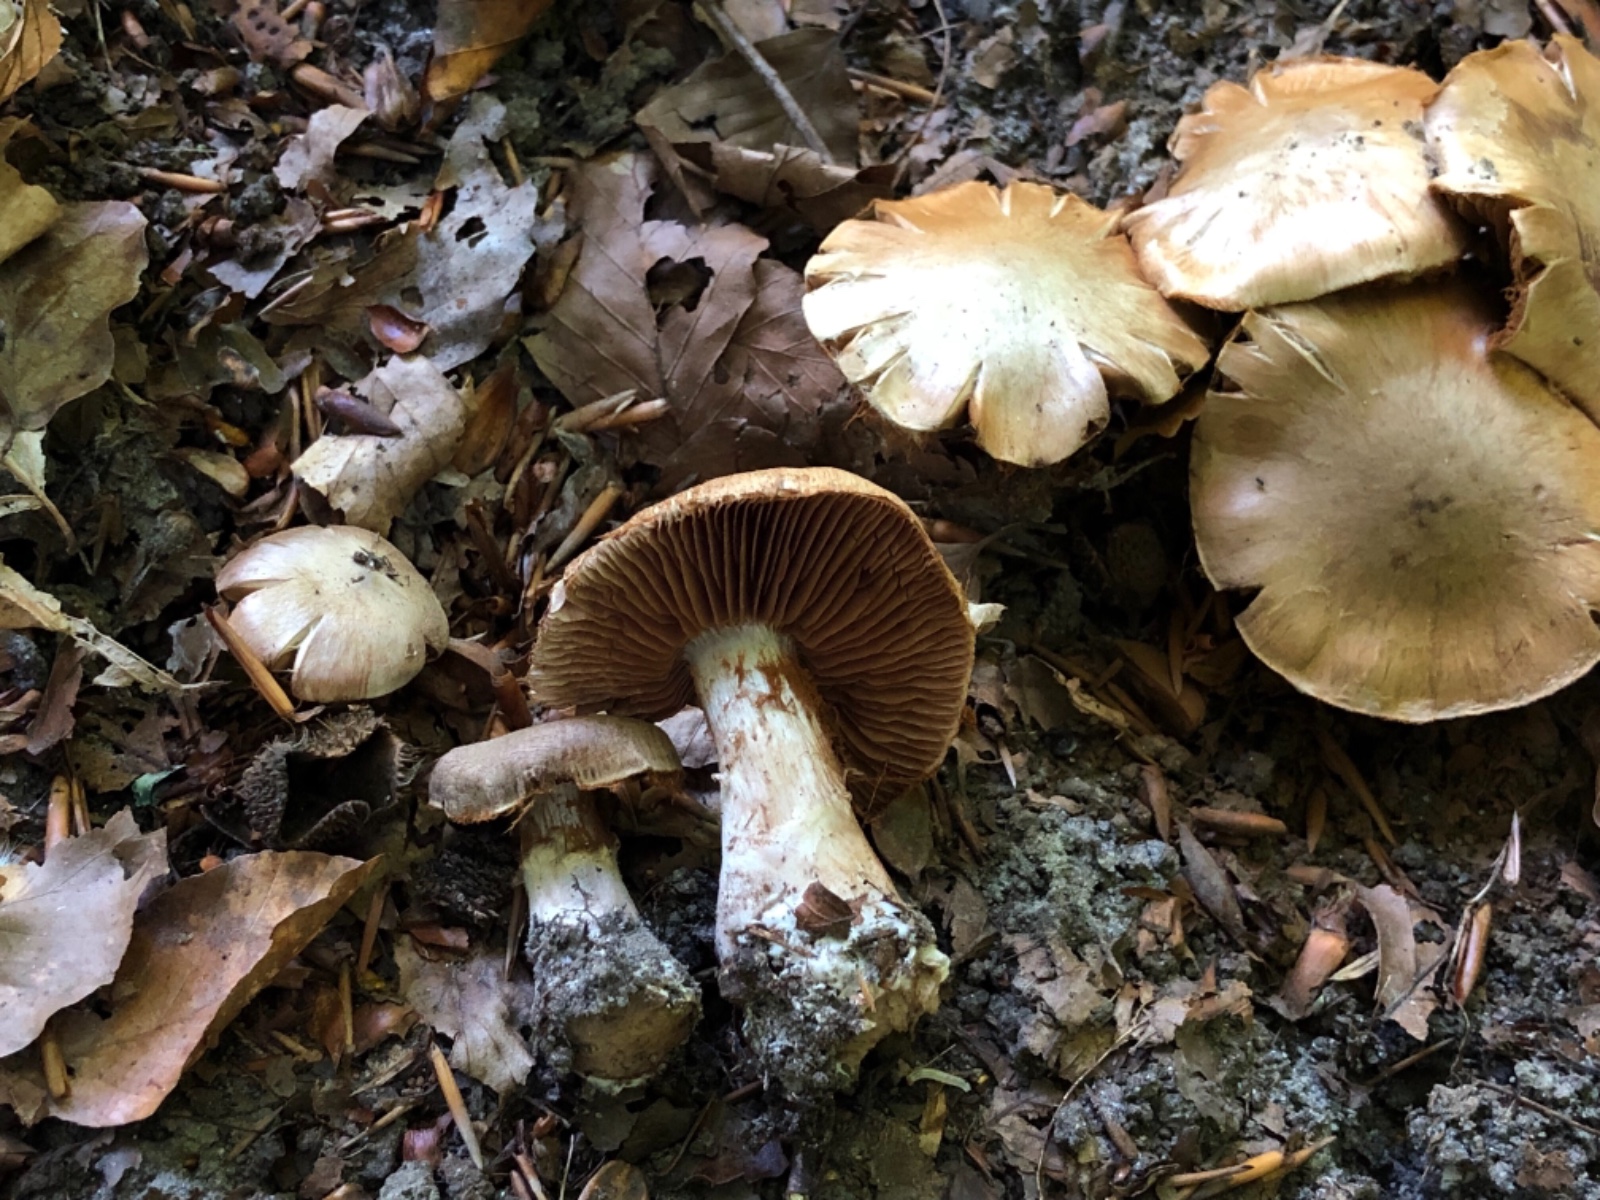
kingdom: Fungi
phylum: Basidiomycota
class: Agaricomycetes
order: Agaricales
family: Cortinariaceae
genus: Cortinarius
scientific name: Cortinarius
